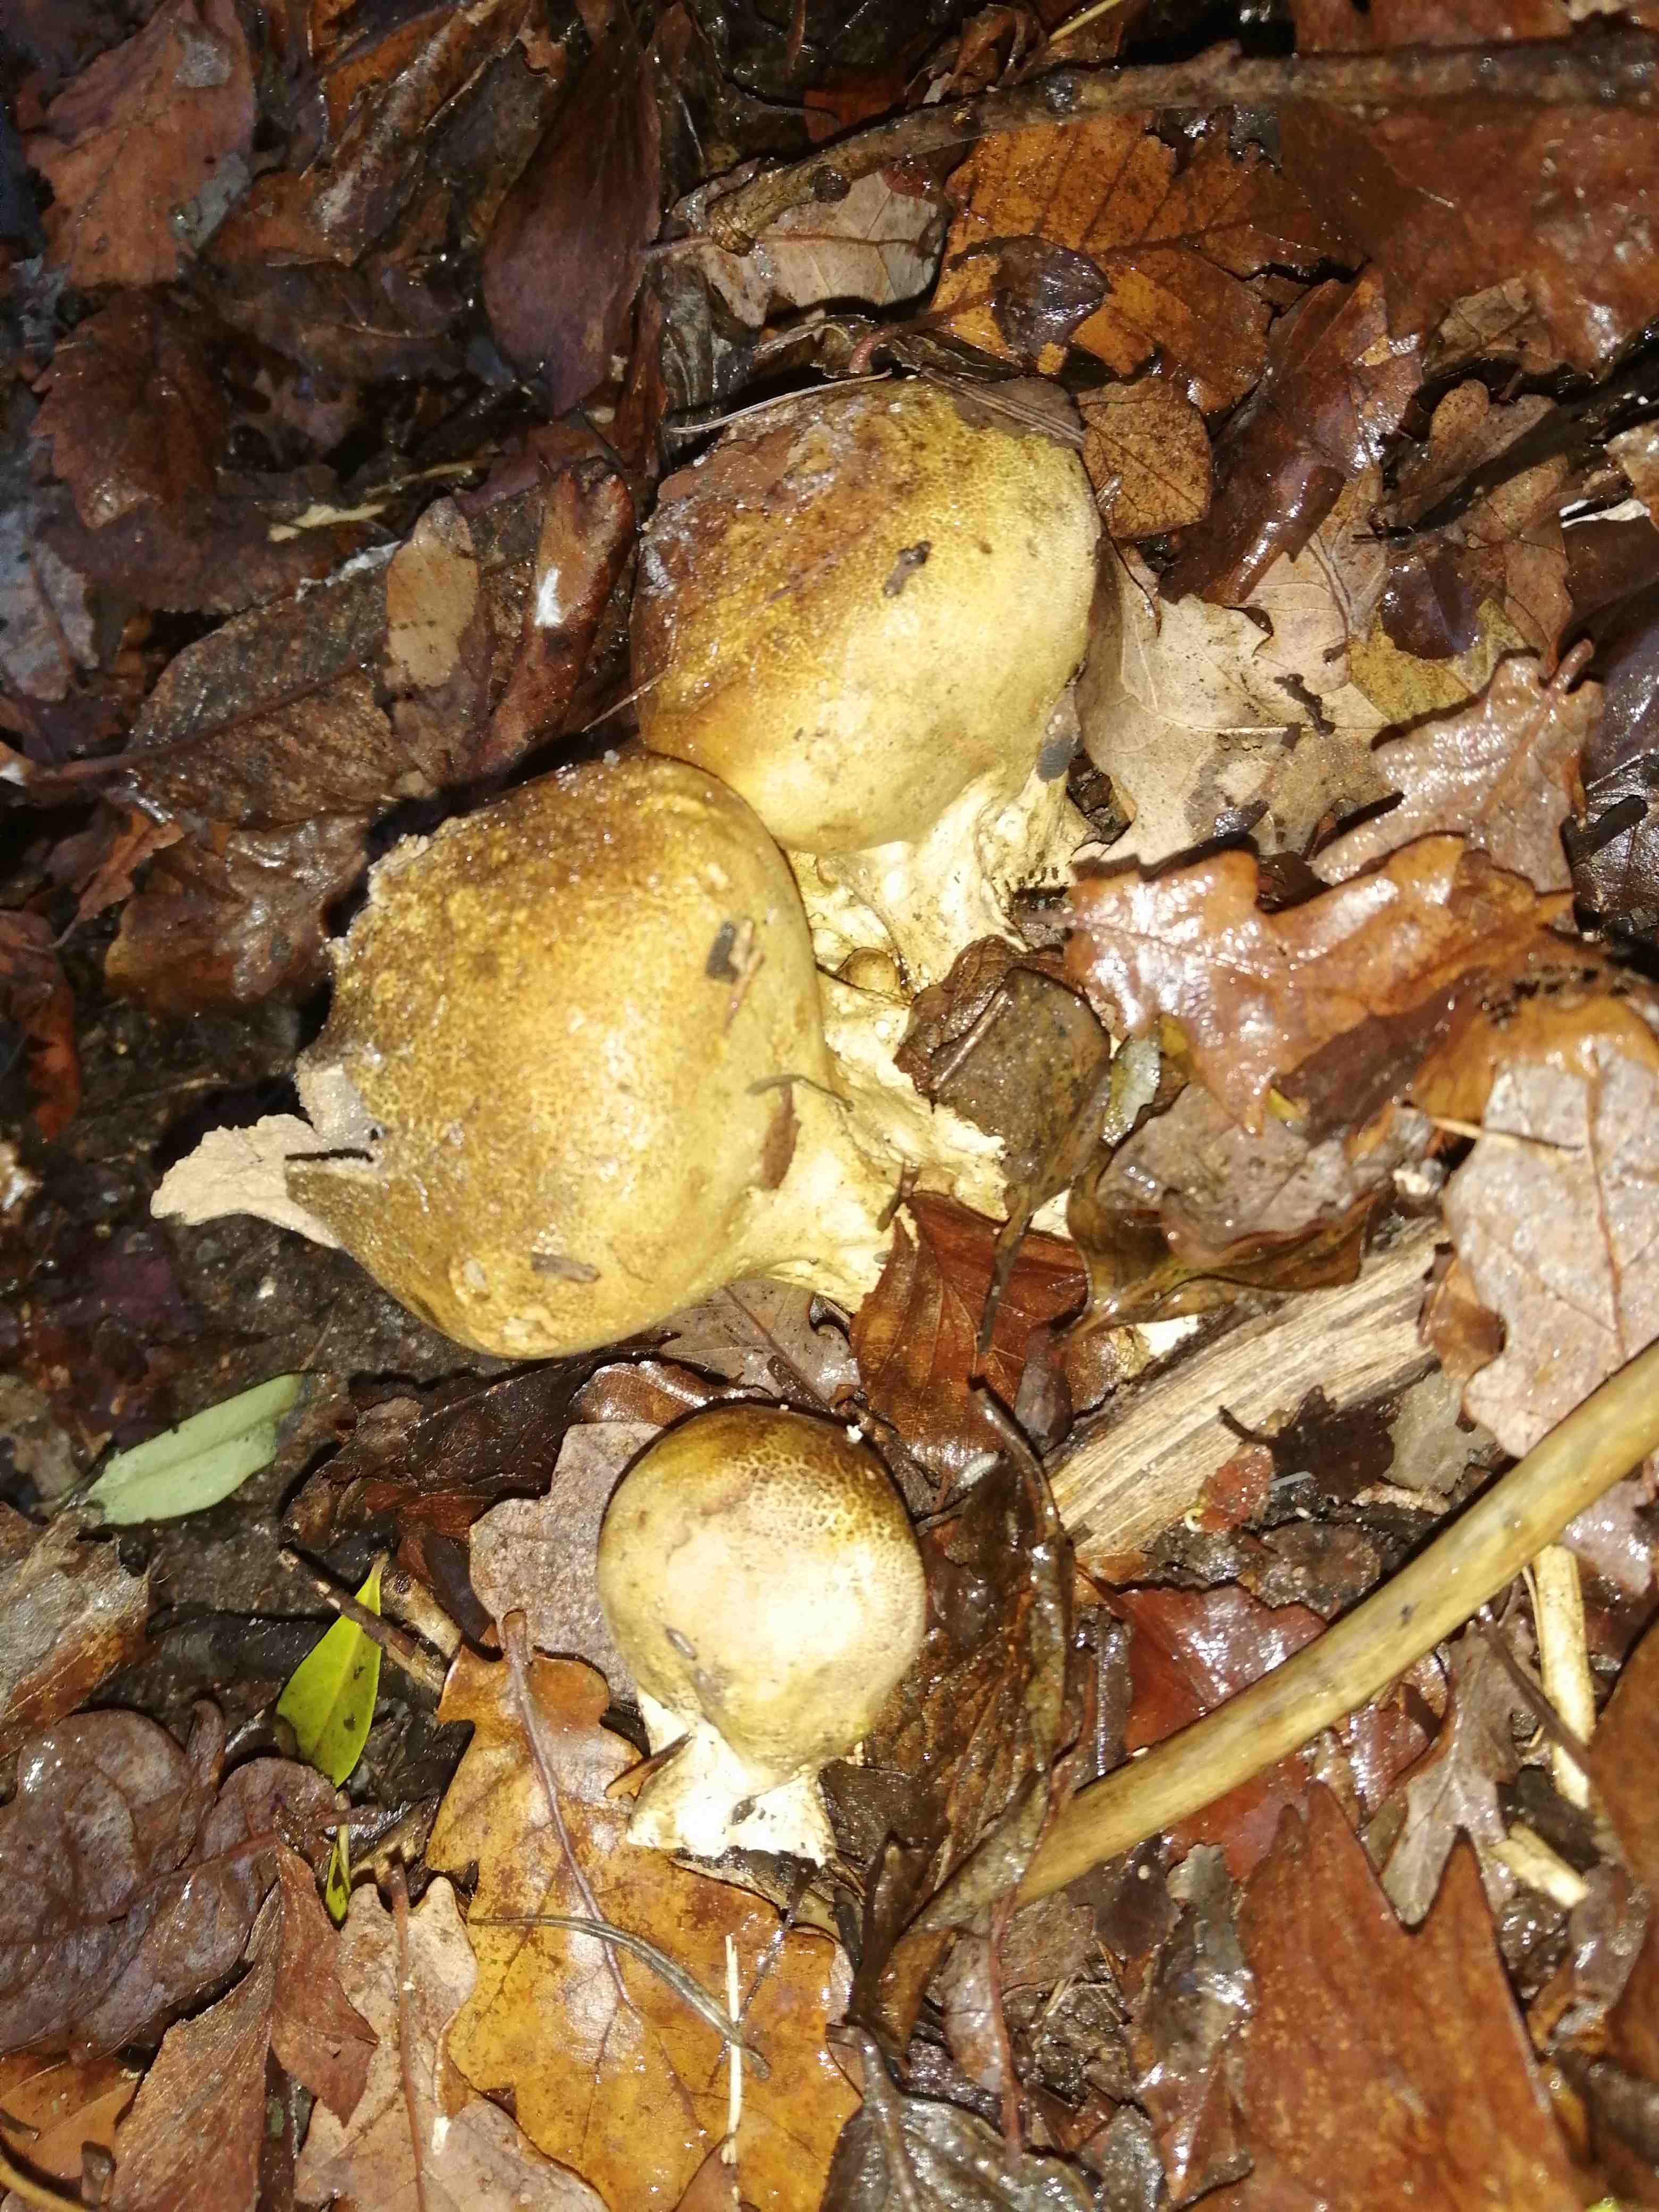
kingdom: Fungi
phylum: Basidiomycota
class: Agaricomycetes
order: Boletales
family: Sclerodermataceae
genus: Scleroderma
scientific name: Scleroderma citrinum
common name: almindelig bruskbold
